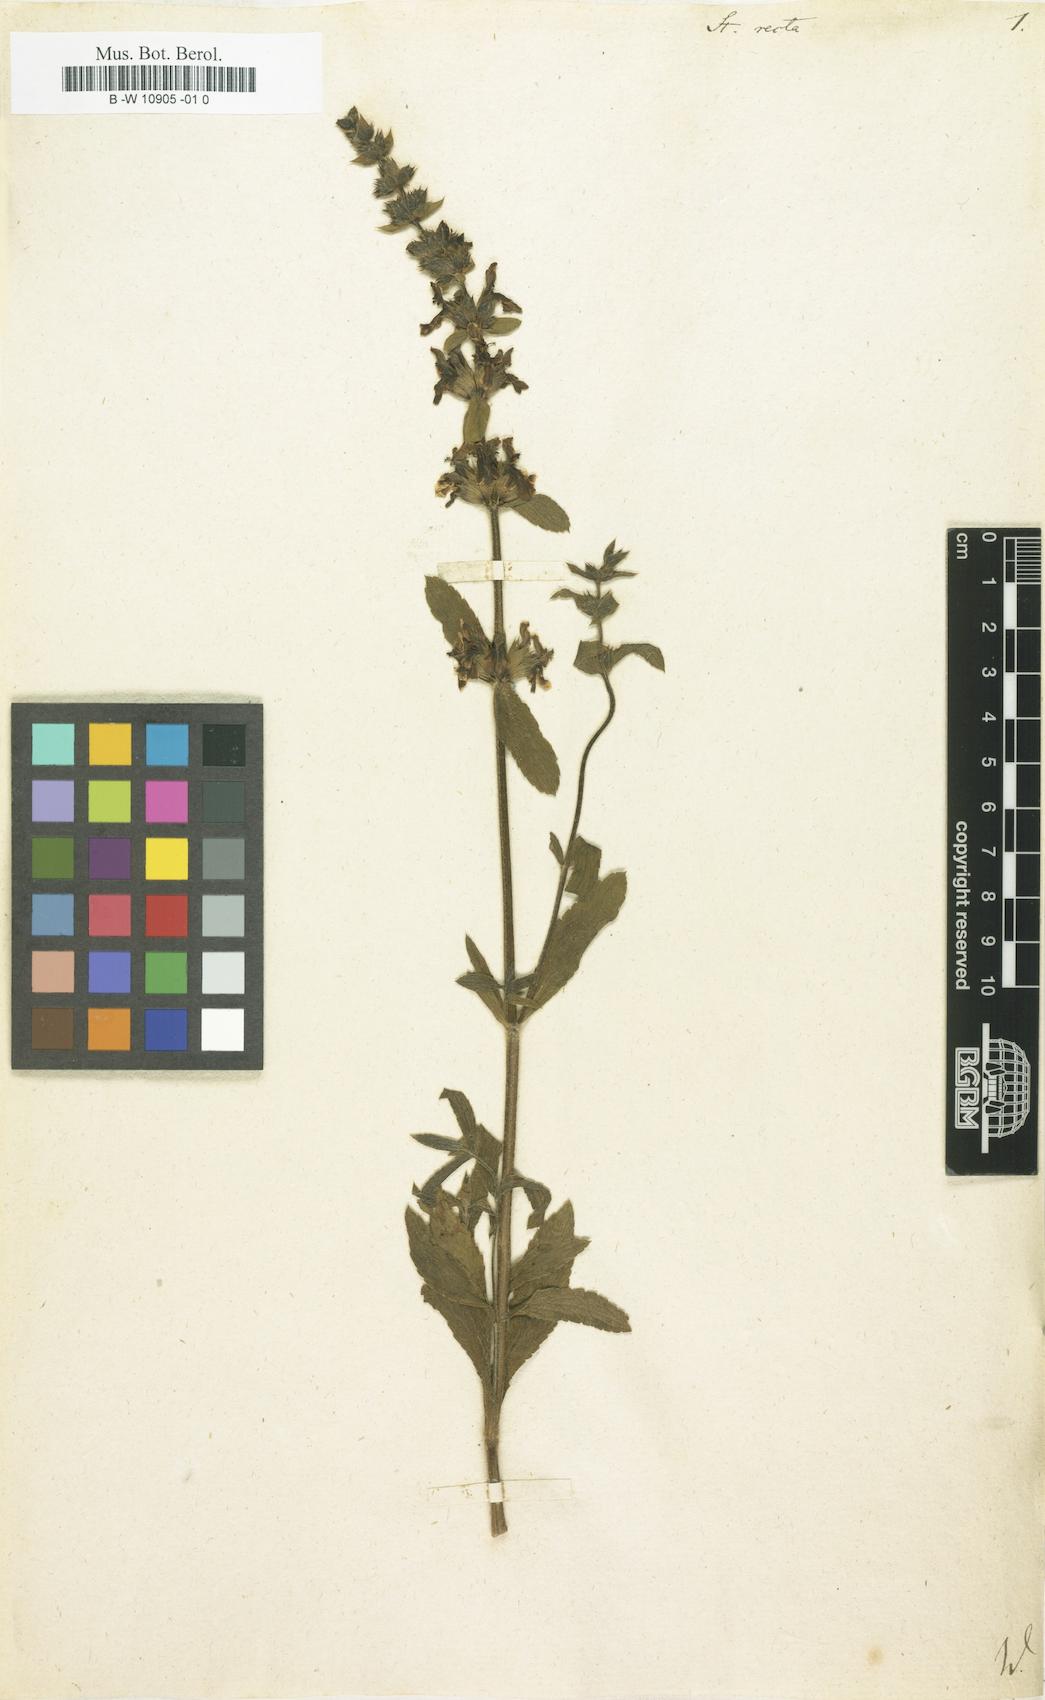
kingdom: Plantae
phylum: Tracheophyta
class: Magnoliopsida
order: Lamiales
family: Lamiaceae
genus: Stachys
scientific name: Stachys recta
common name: Perennial yellow-woundwort
